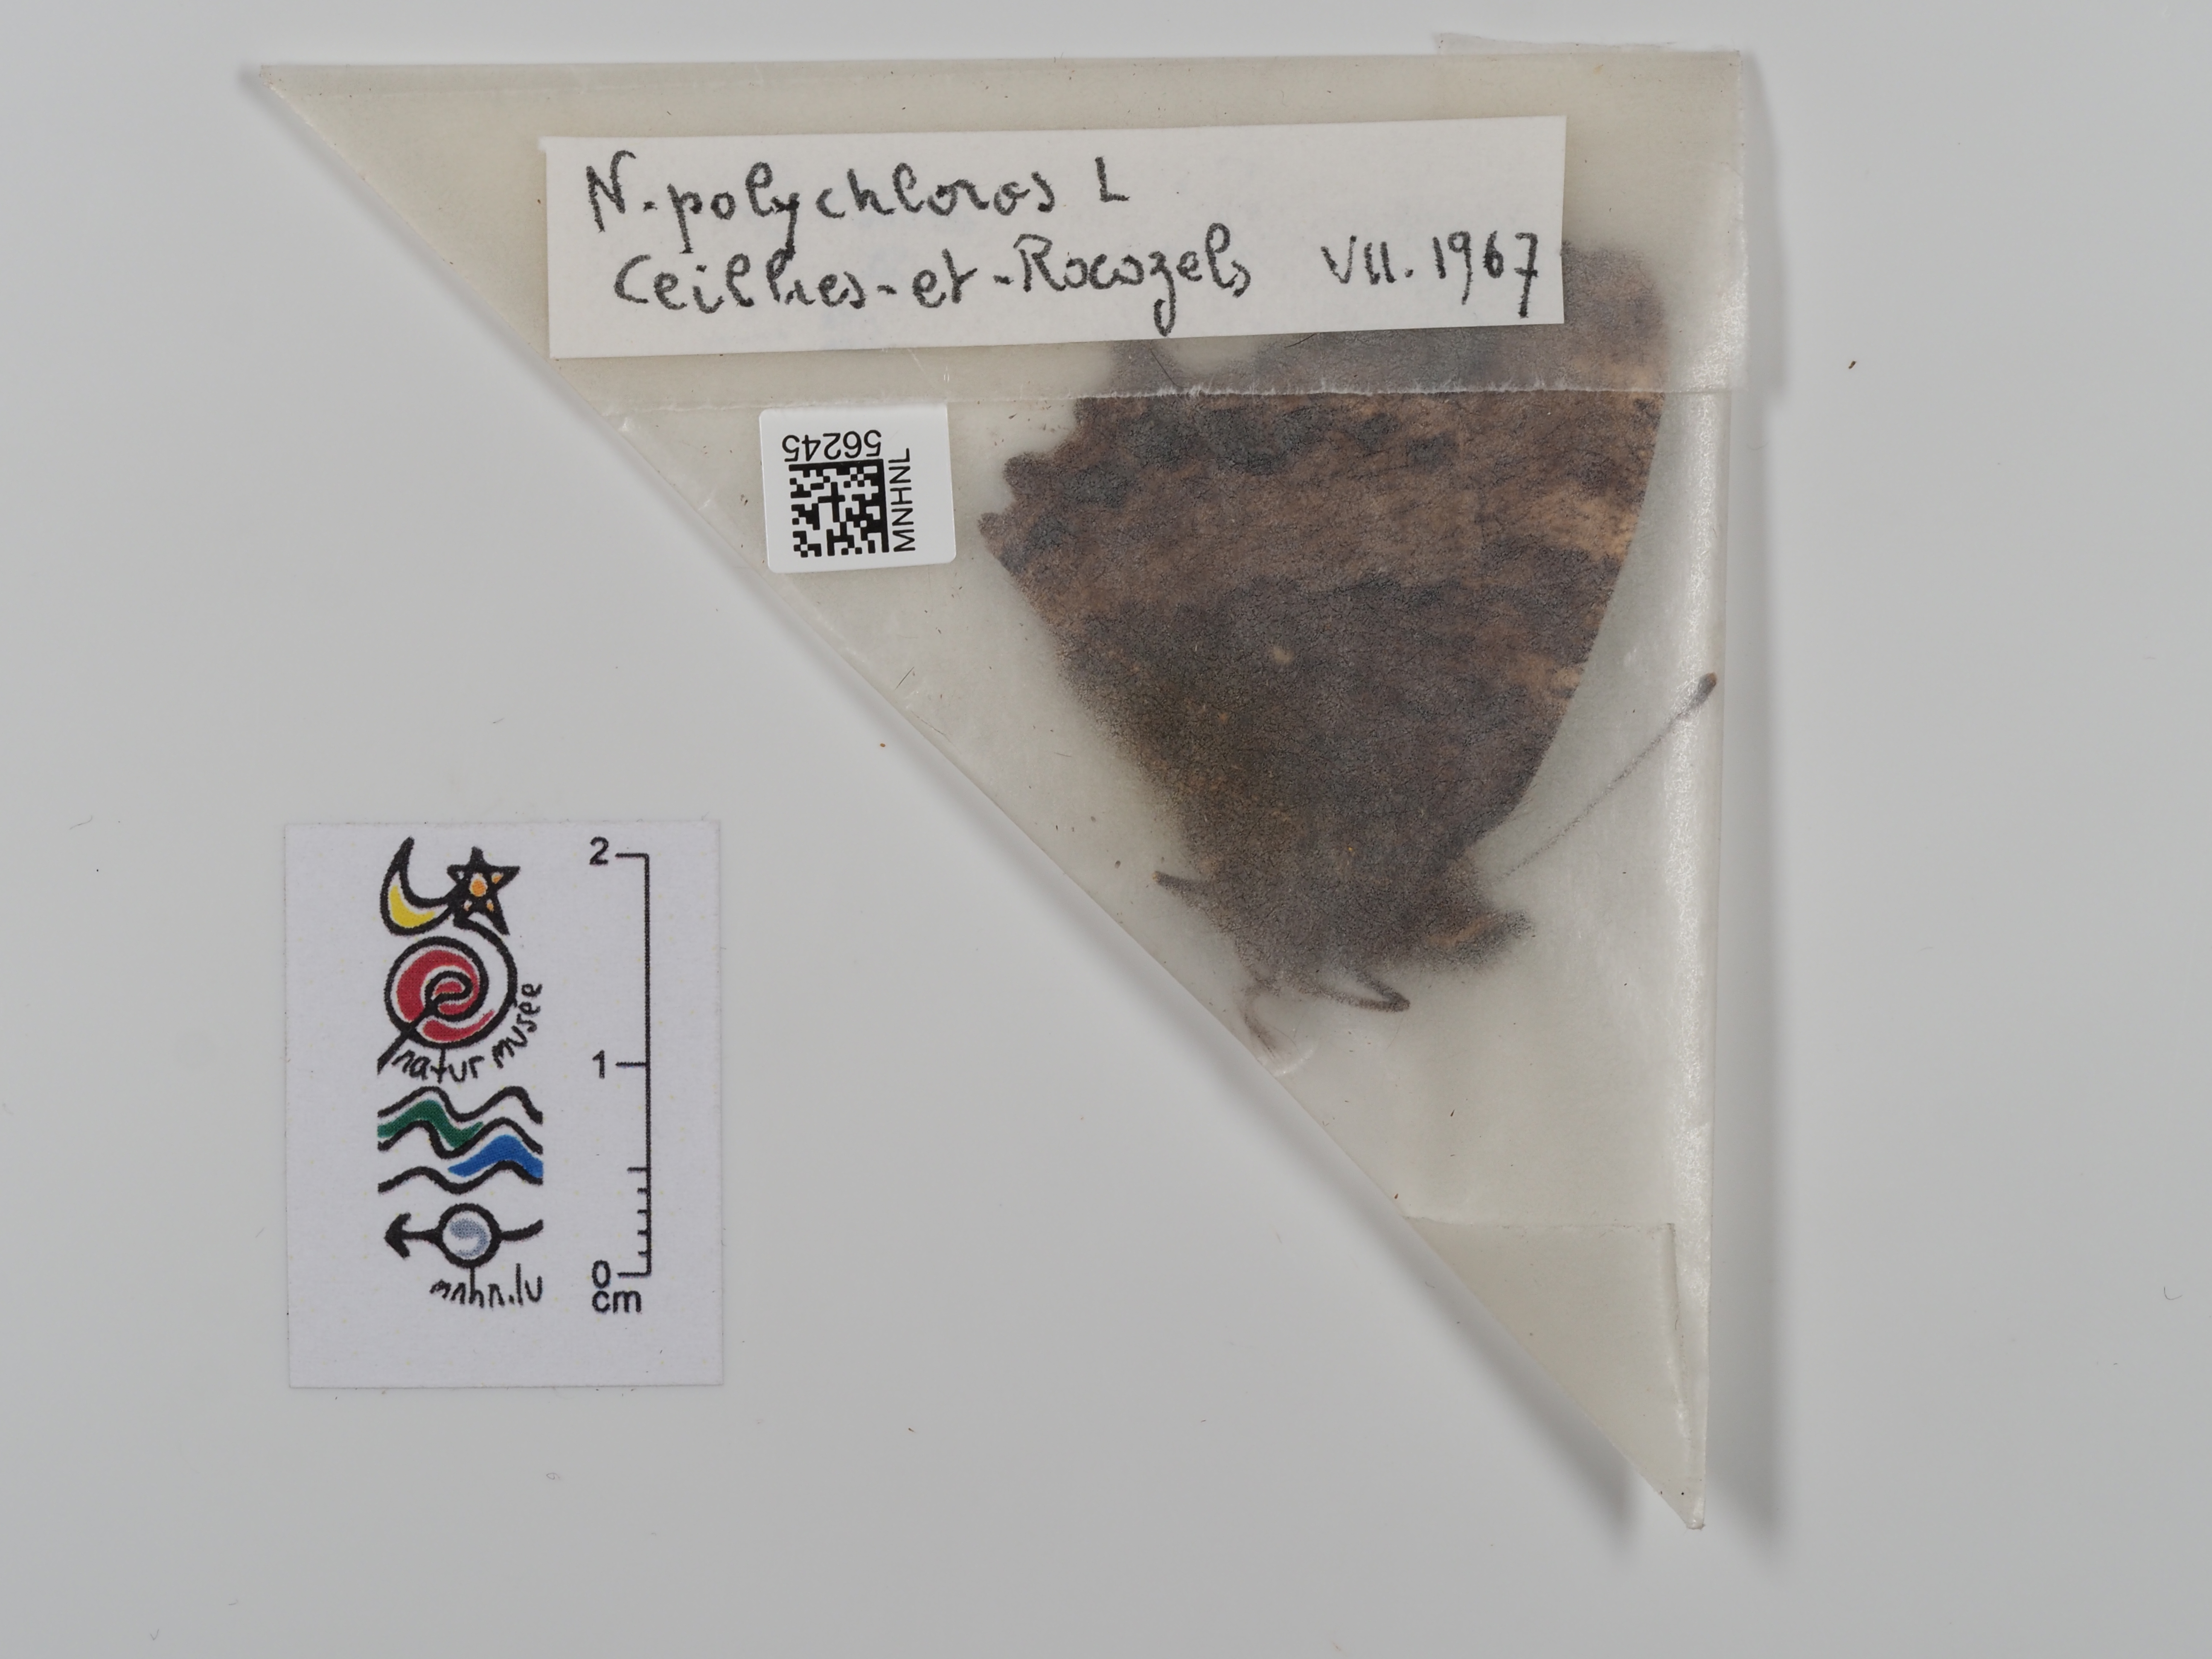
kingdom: Animalia
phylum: Arthropoda
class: Insecta
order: Lepidoptera
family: Nymphalidae
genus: Nymphalis
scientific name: Nymphalis polychloros
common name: Large tortoiseshell
